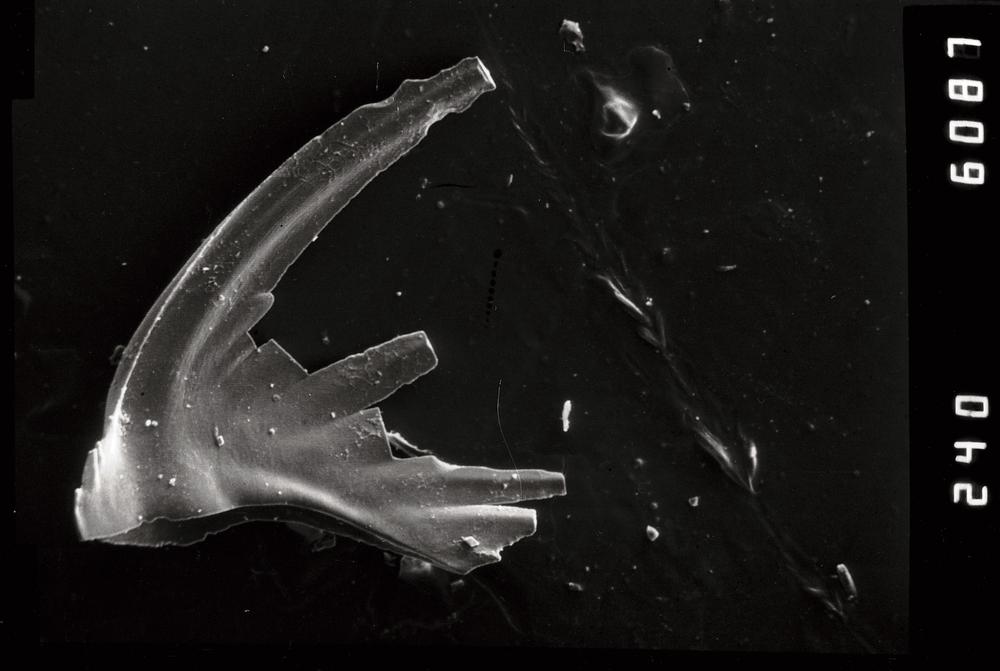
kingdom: Animalia
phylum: Chordata
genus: Periodon
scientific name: Periodon aculeatus
